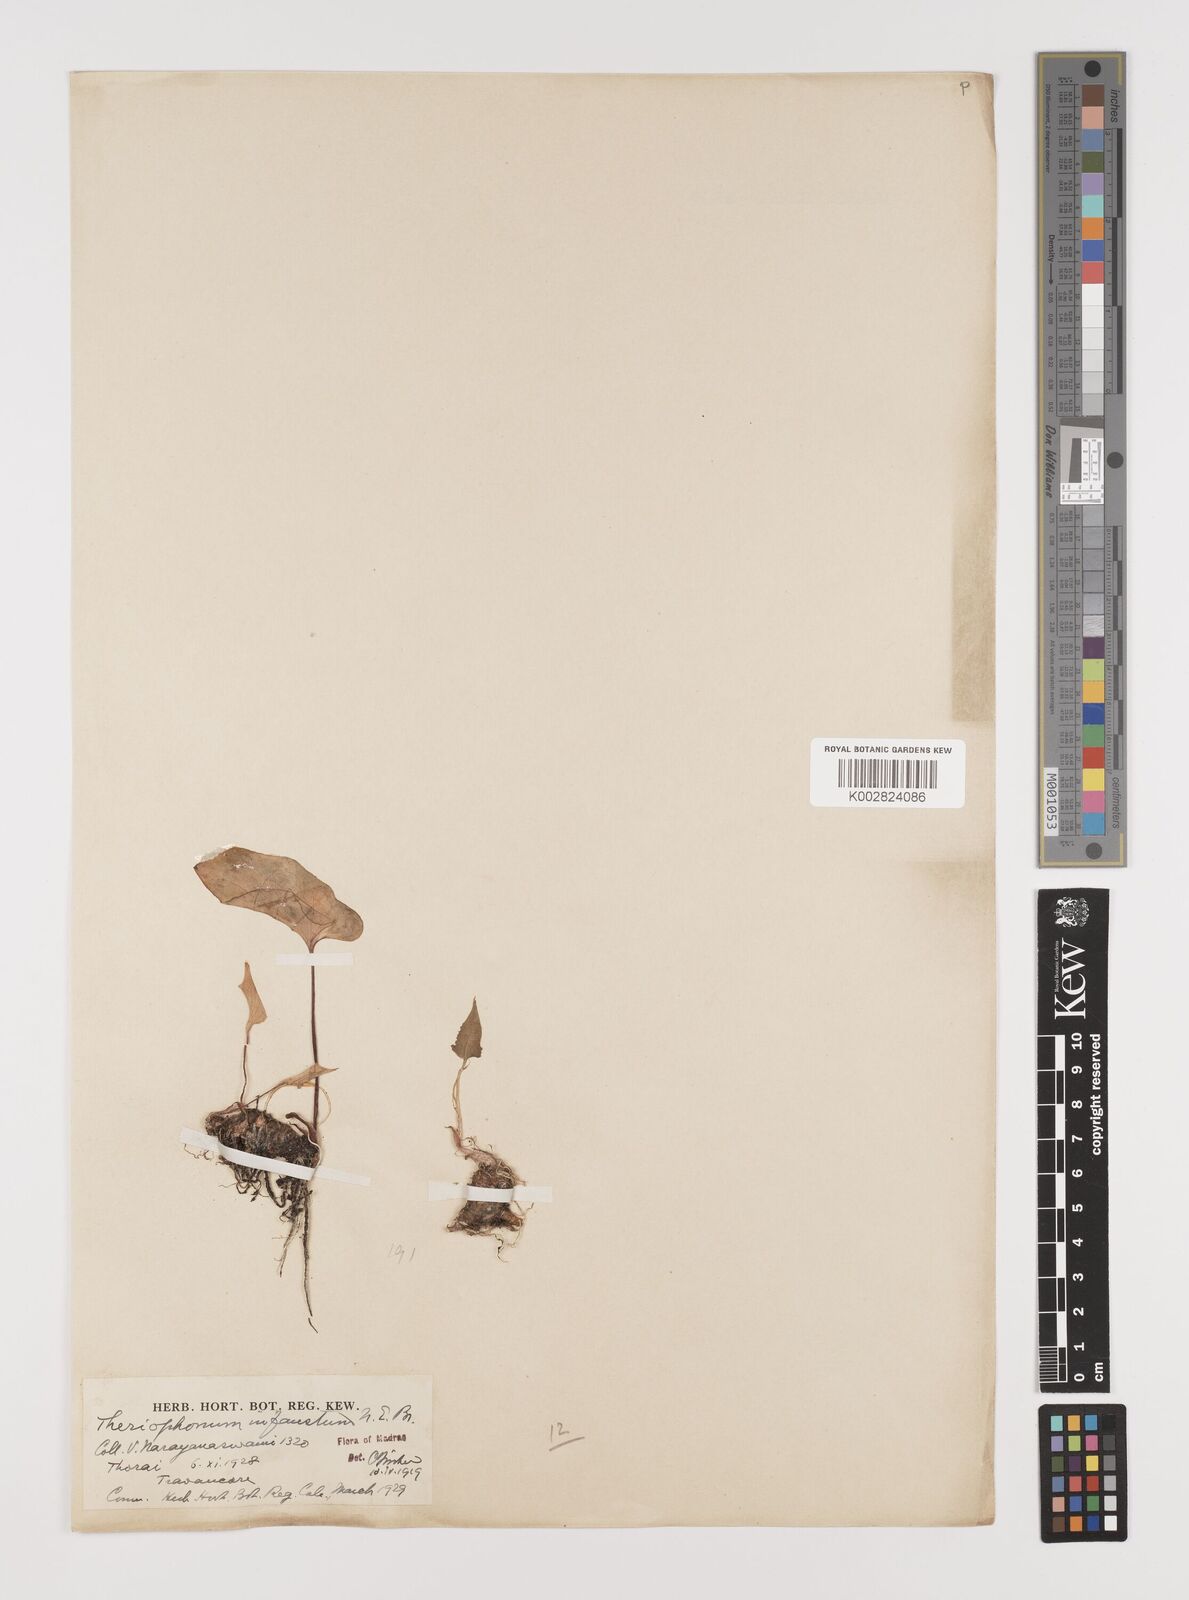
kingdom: Plantae
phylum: Tracheophyta
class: Liliopsida
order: Alismatales
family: Araceae
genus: Theriophonum
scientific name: Theriophonum infaustum
